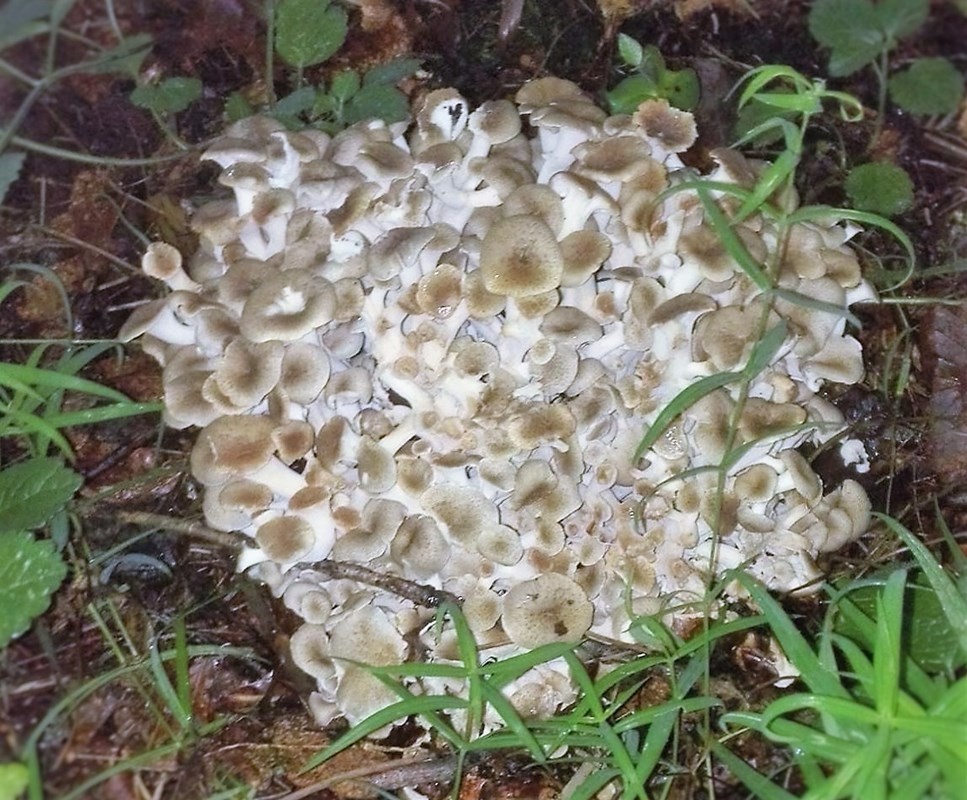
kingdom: Fungi
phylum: Basidiomycota
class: Agaricomycetes
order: Polyporales
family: Polyporaceae
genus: Polyporus
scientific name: Polyporus umbellatus
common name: skærmformet stilkporesvamp
